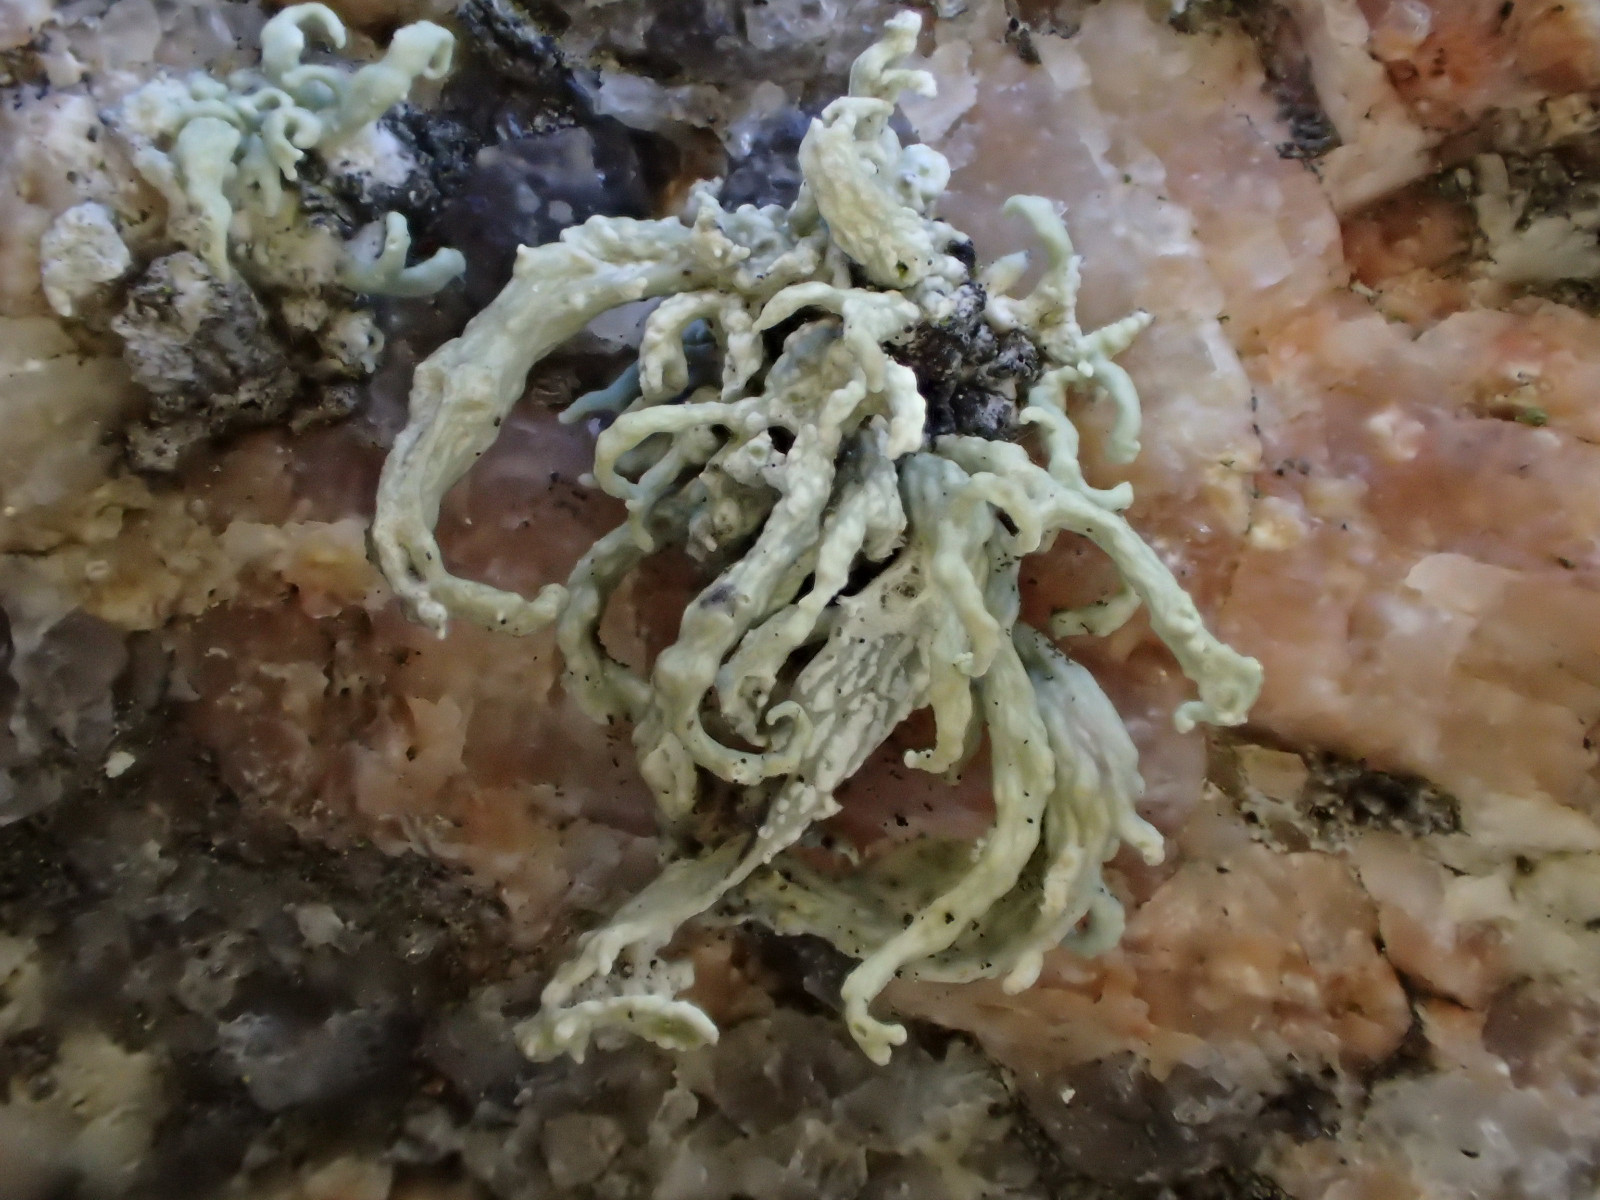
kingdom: Fungi
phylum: Ascomycota
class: Lecanoromycetes
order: Lecanorales
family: Ramalinaceae
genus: Ramalina
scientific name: Ramalina siliquosa
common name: klippe-grenlav
